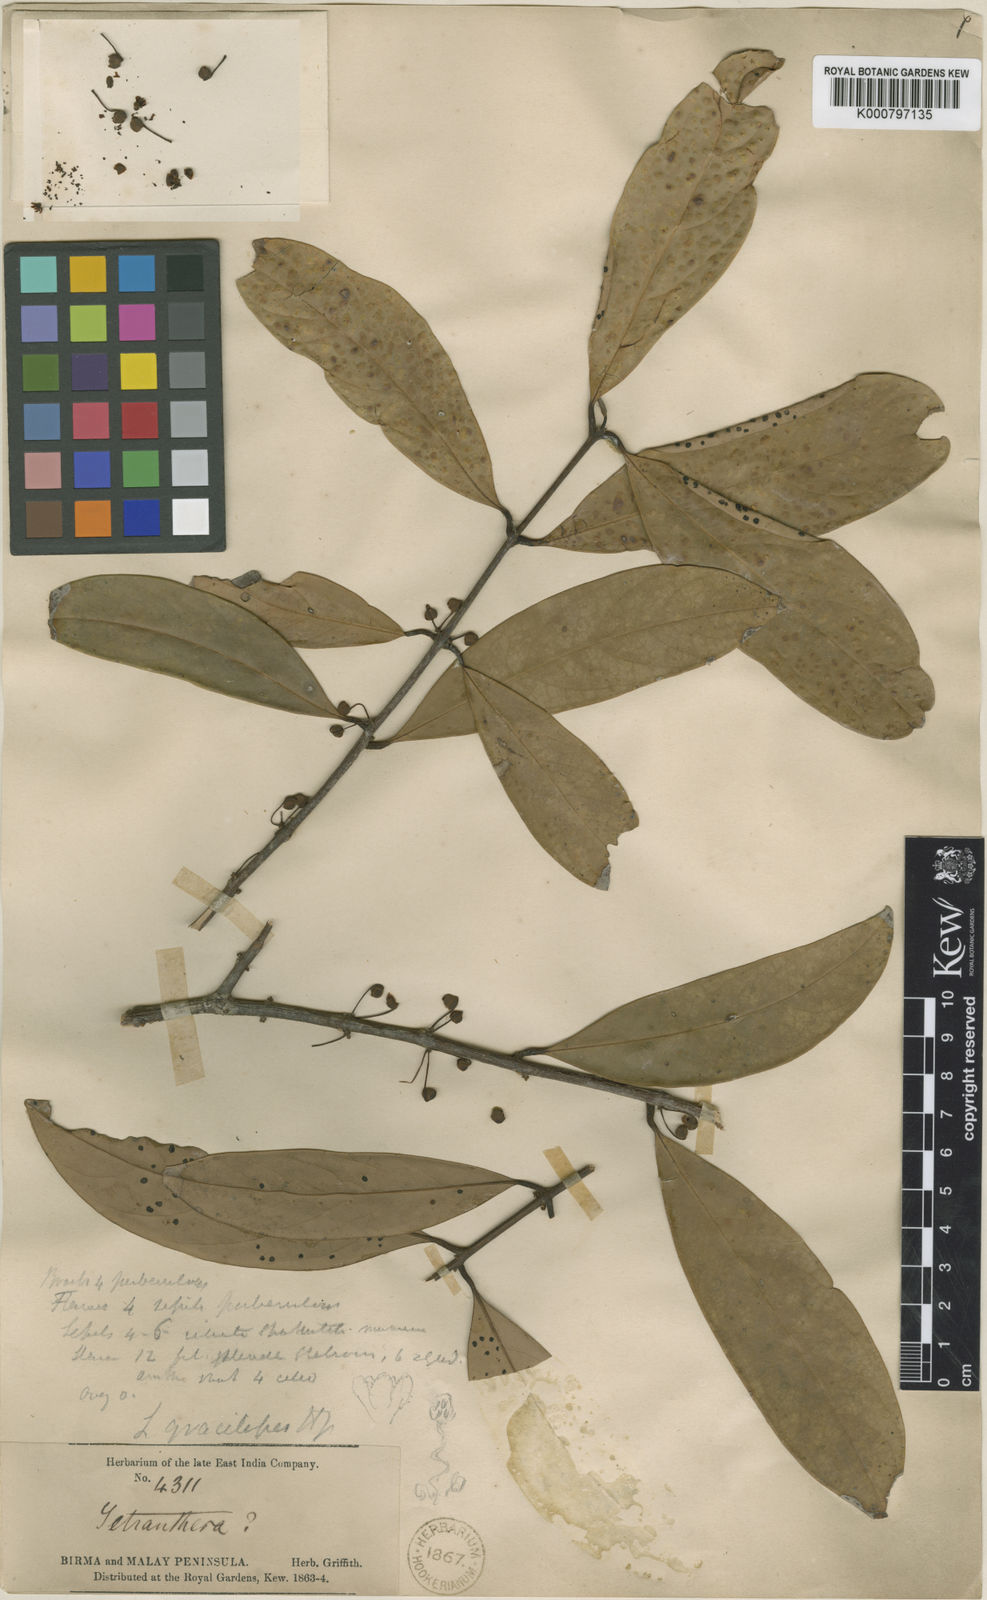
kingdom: Plantae
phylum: Tracheophyta
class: Magnoliopsida
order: Laurales
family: Lauraceae
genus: Litsea
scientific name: Litsea gracilipes
